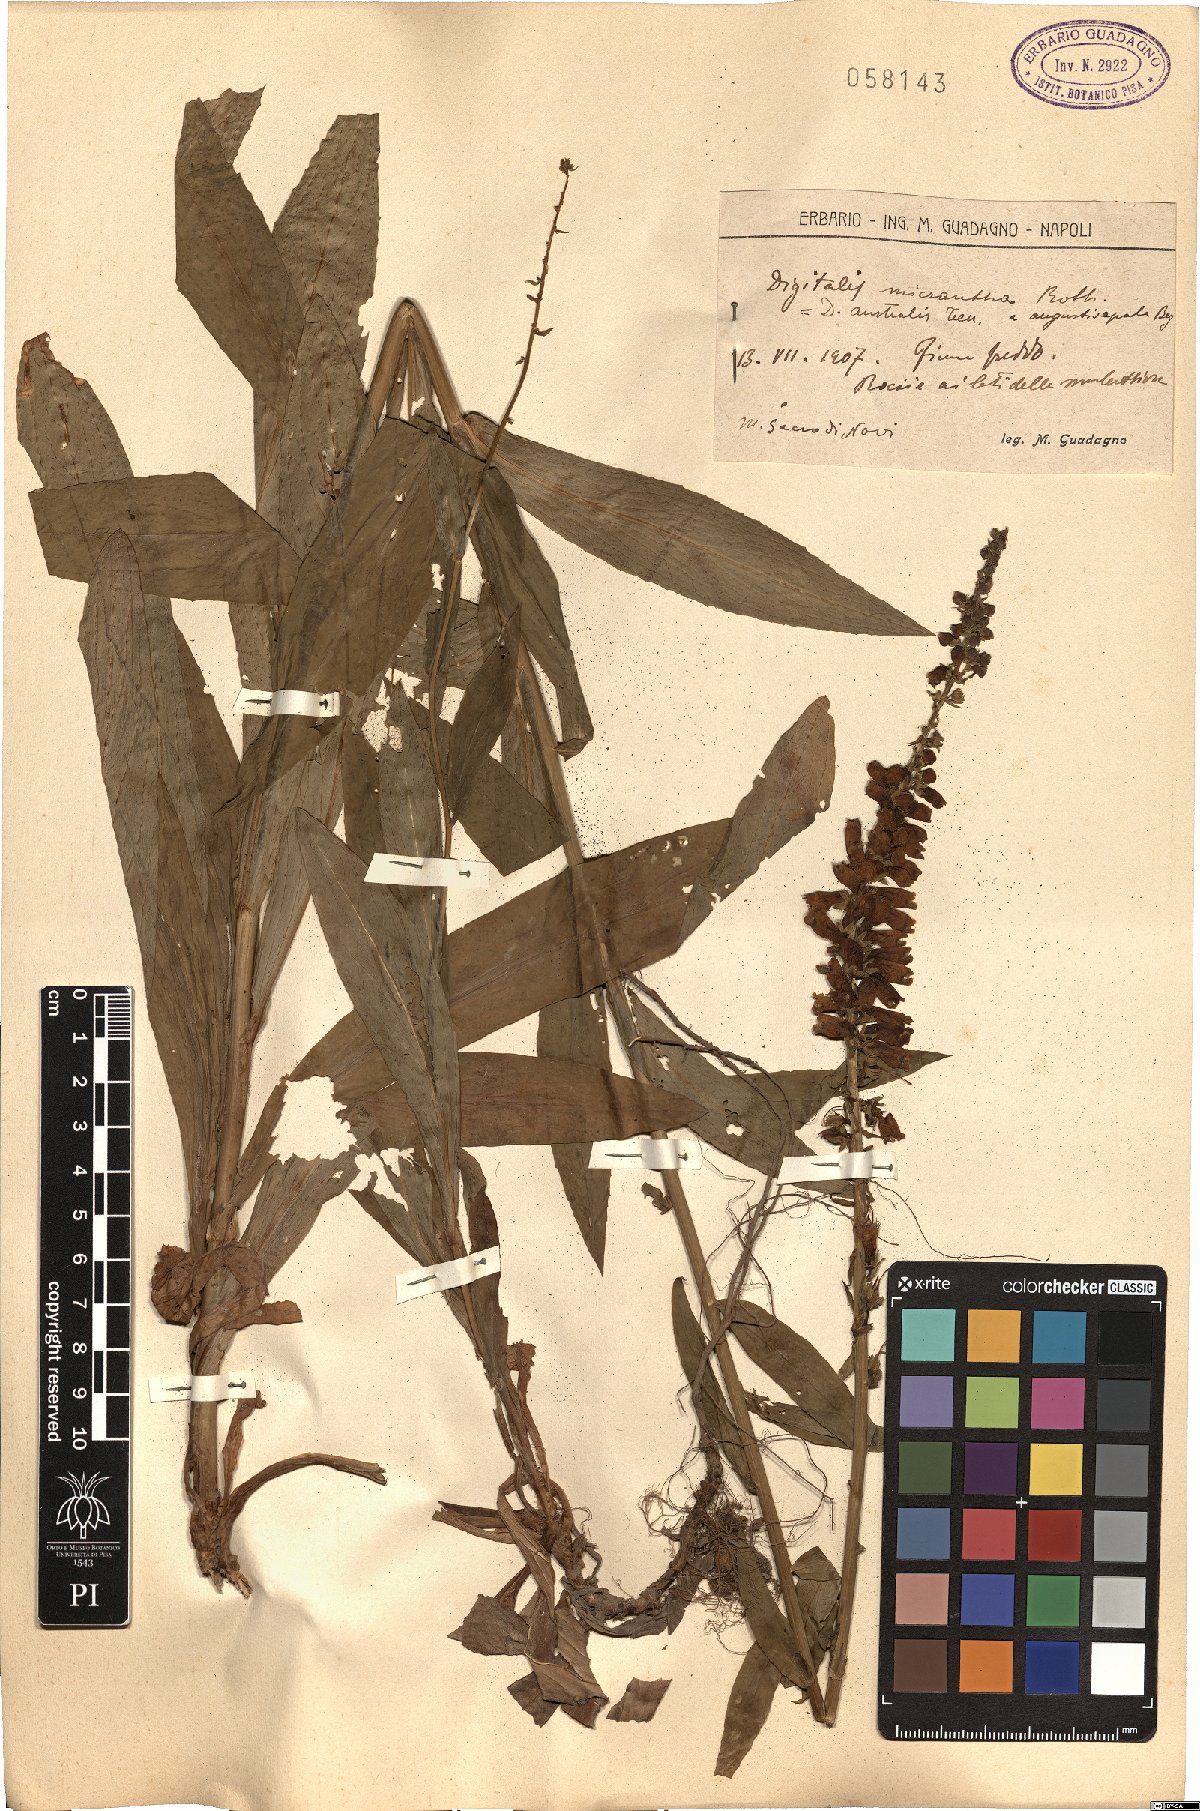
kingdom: Plantae
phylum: Tracheophyta
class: Magnoliopsida
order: Lamiales
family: Plantaginaceae
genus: Digitalis
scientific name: Digitalis lutea
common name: Straw foxglove
